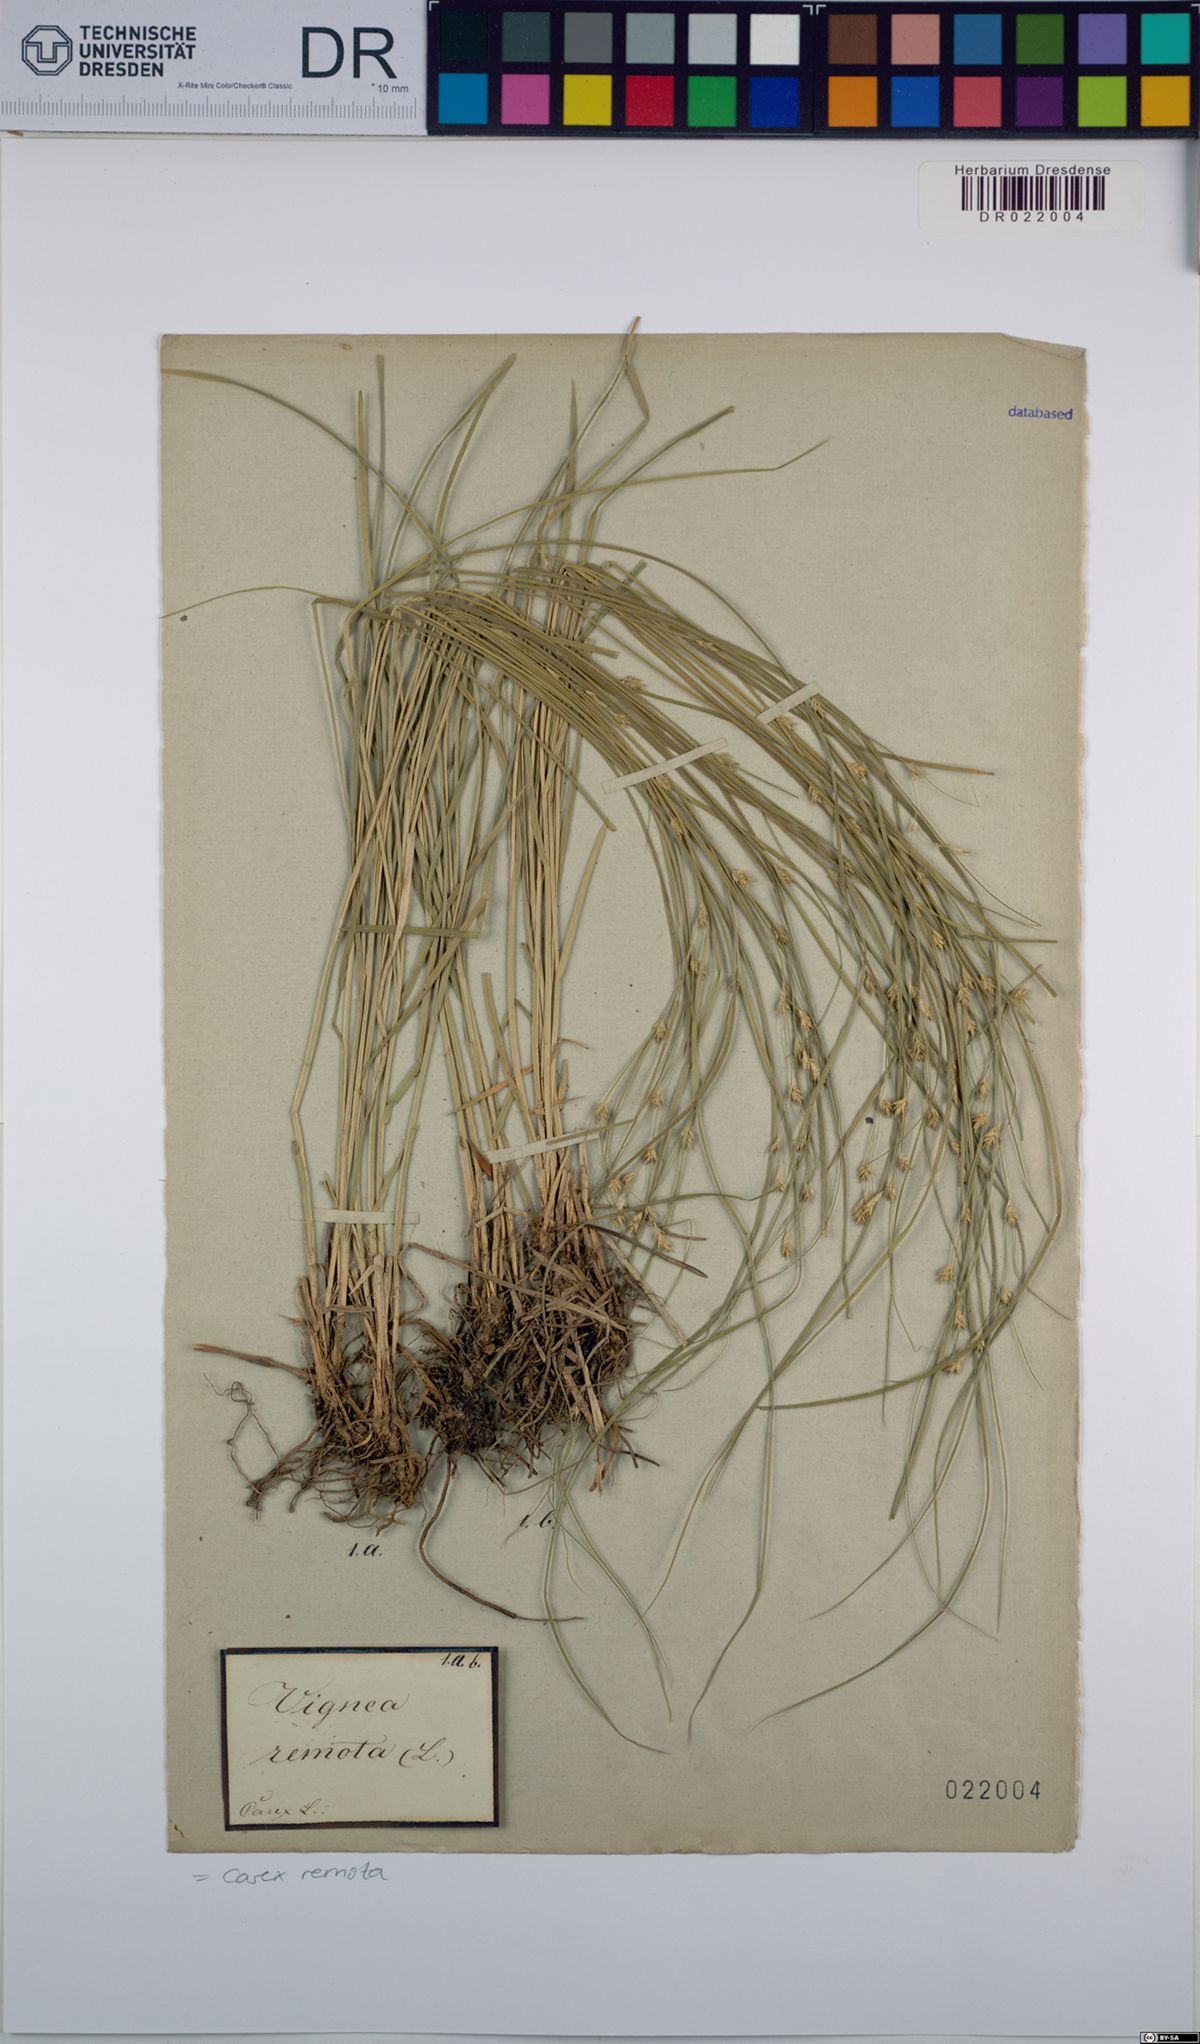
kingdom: Plantae
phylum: Tracheophyta
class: Liliopsida
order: Poales
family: Cyperaceae
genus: Carex
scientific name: Carex remota
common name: Remote sedge
